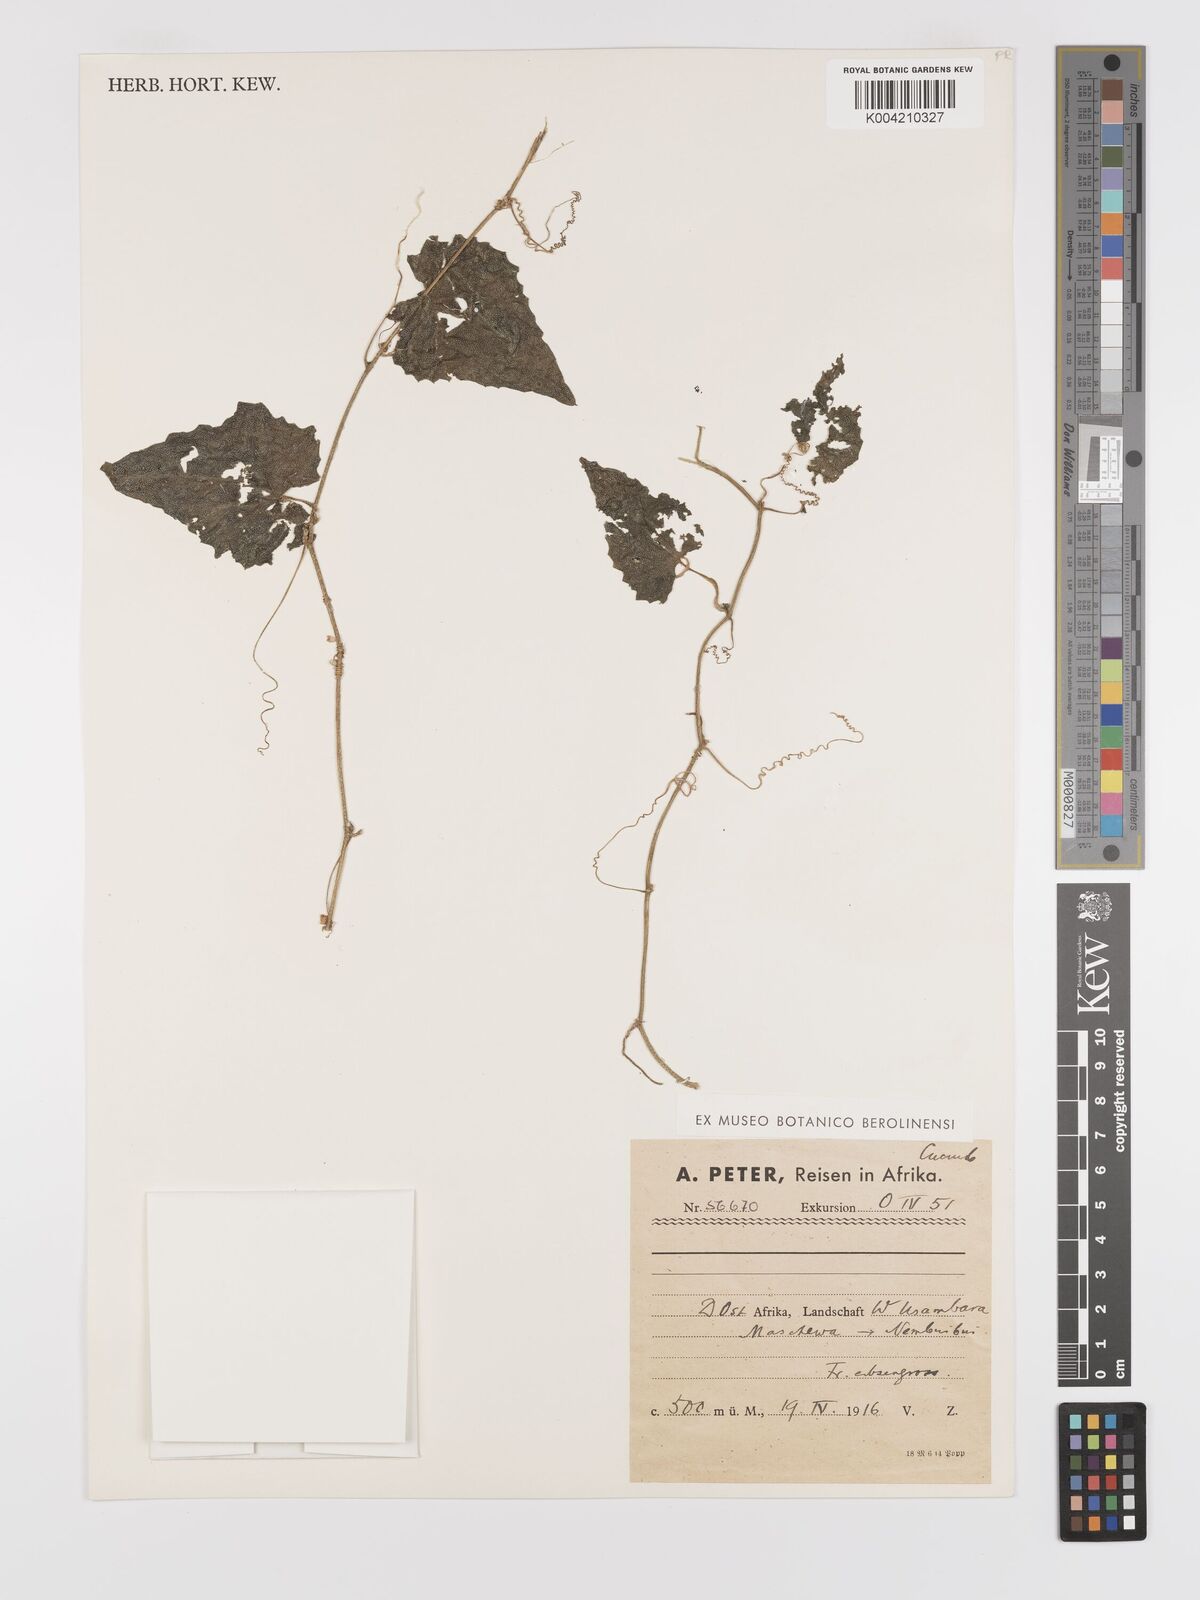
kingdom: Plantae
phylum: Tracheophyta
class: Magnoliopsida
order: Cucurbitales
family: Cucurbitaceae
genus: Zehneria
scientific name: Zehneria scabra
